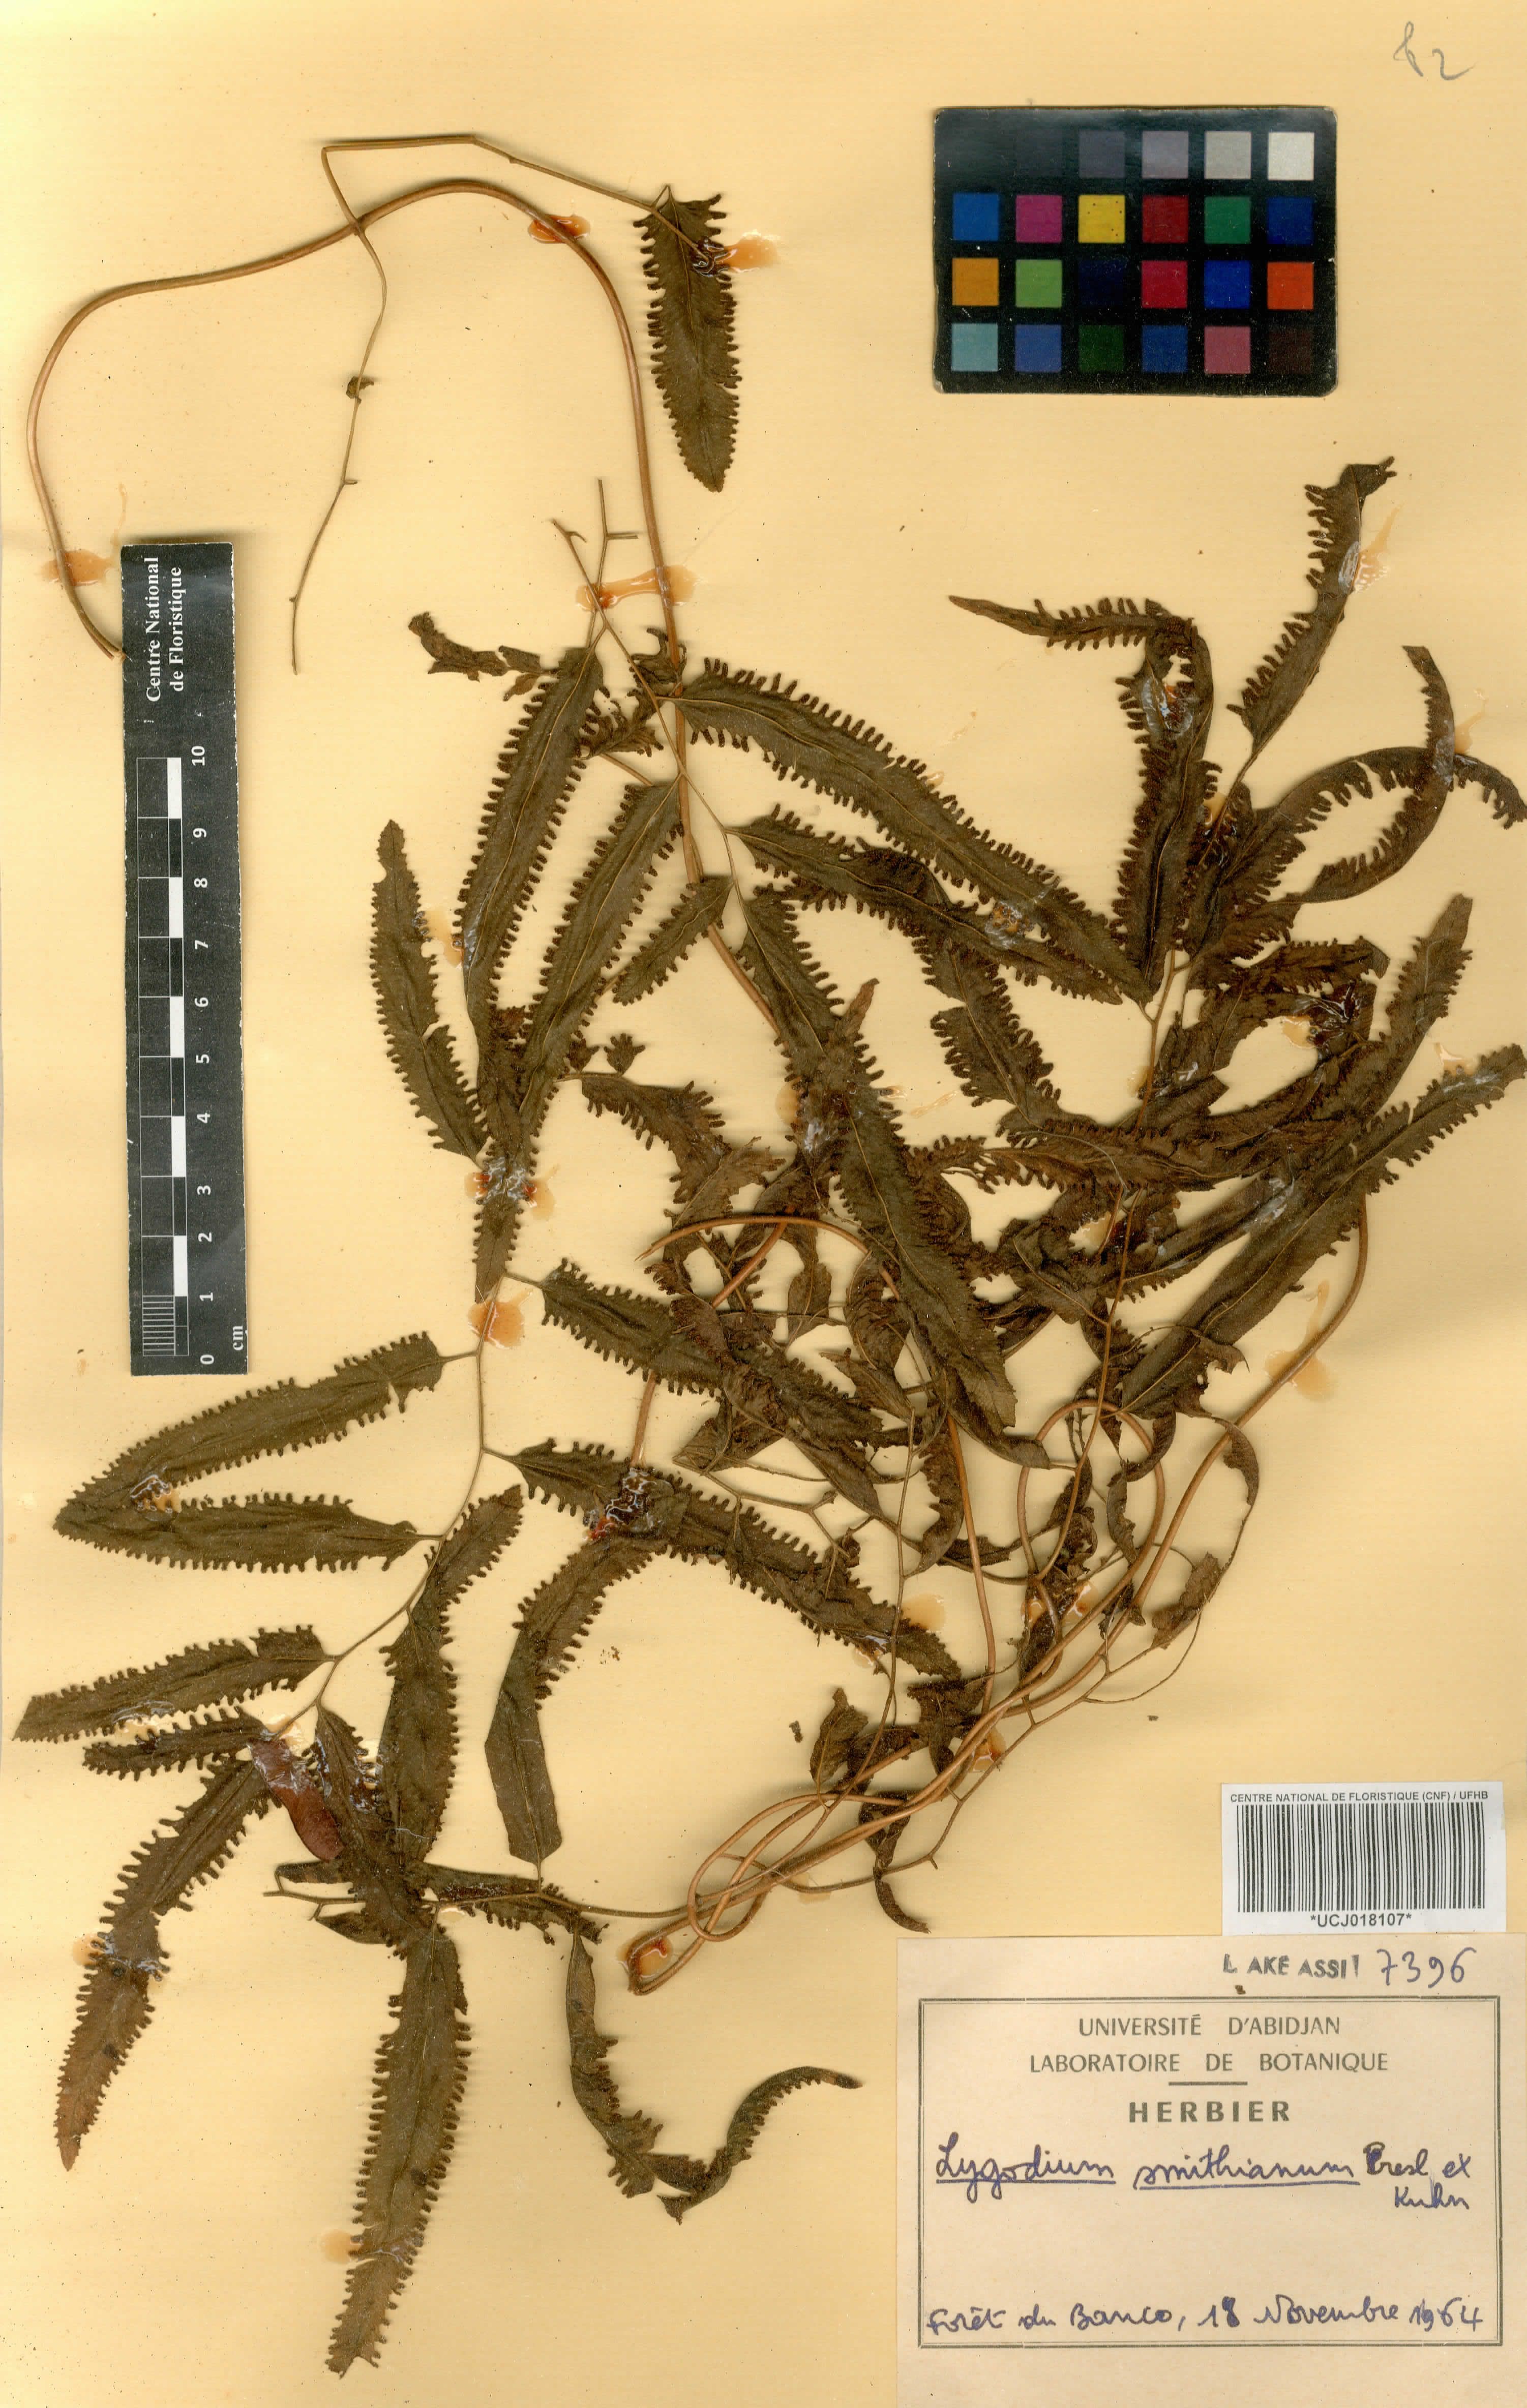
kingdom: Plantae
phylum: Tracheophyta
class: Polypodiopsida
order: Schizaeales
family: Lygodiaceae
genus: Lygodium
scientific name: Lygodium smithianum
